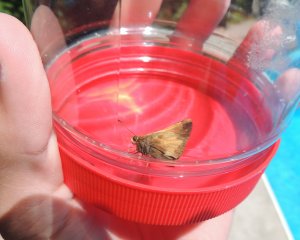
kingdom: Animalia
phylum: Arthropoda
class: Insecta
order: Lepidoptera
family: Hesperiidae
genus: Lon
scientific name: Lon hobomok
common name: Hobomok Skipper
